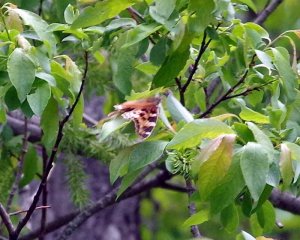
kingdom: Animalia
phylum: Arthropoda
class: Insecta
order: Lepidoptera
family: Nymphalidae
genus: Polygonia
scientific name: Polygonia vaualbum
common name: Compton Tortoiseshell
